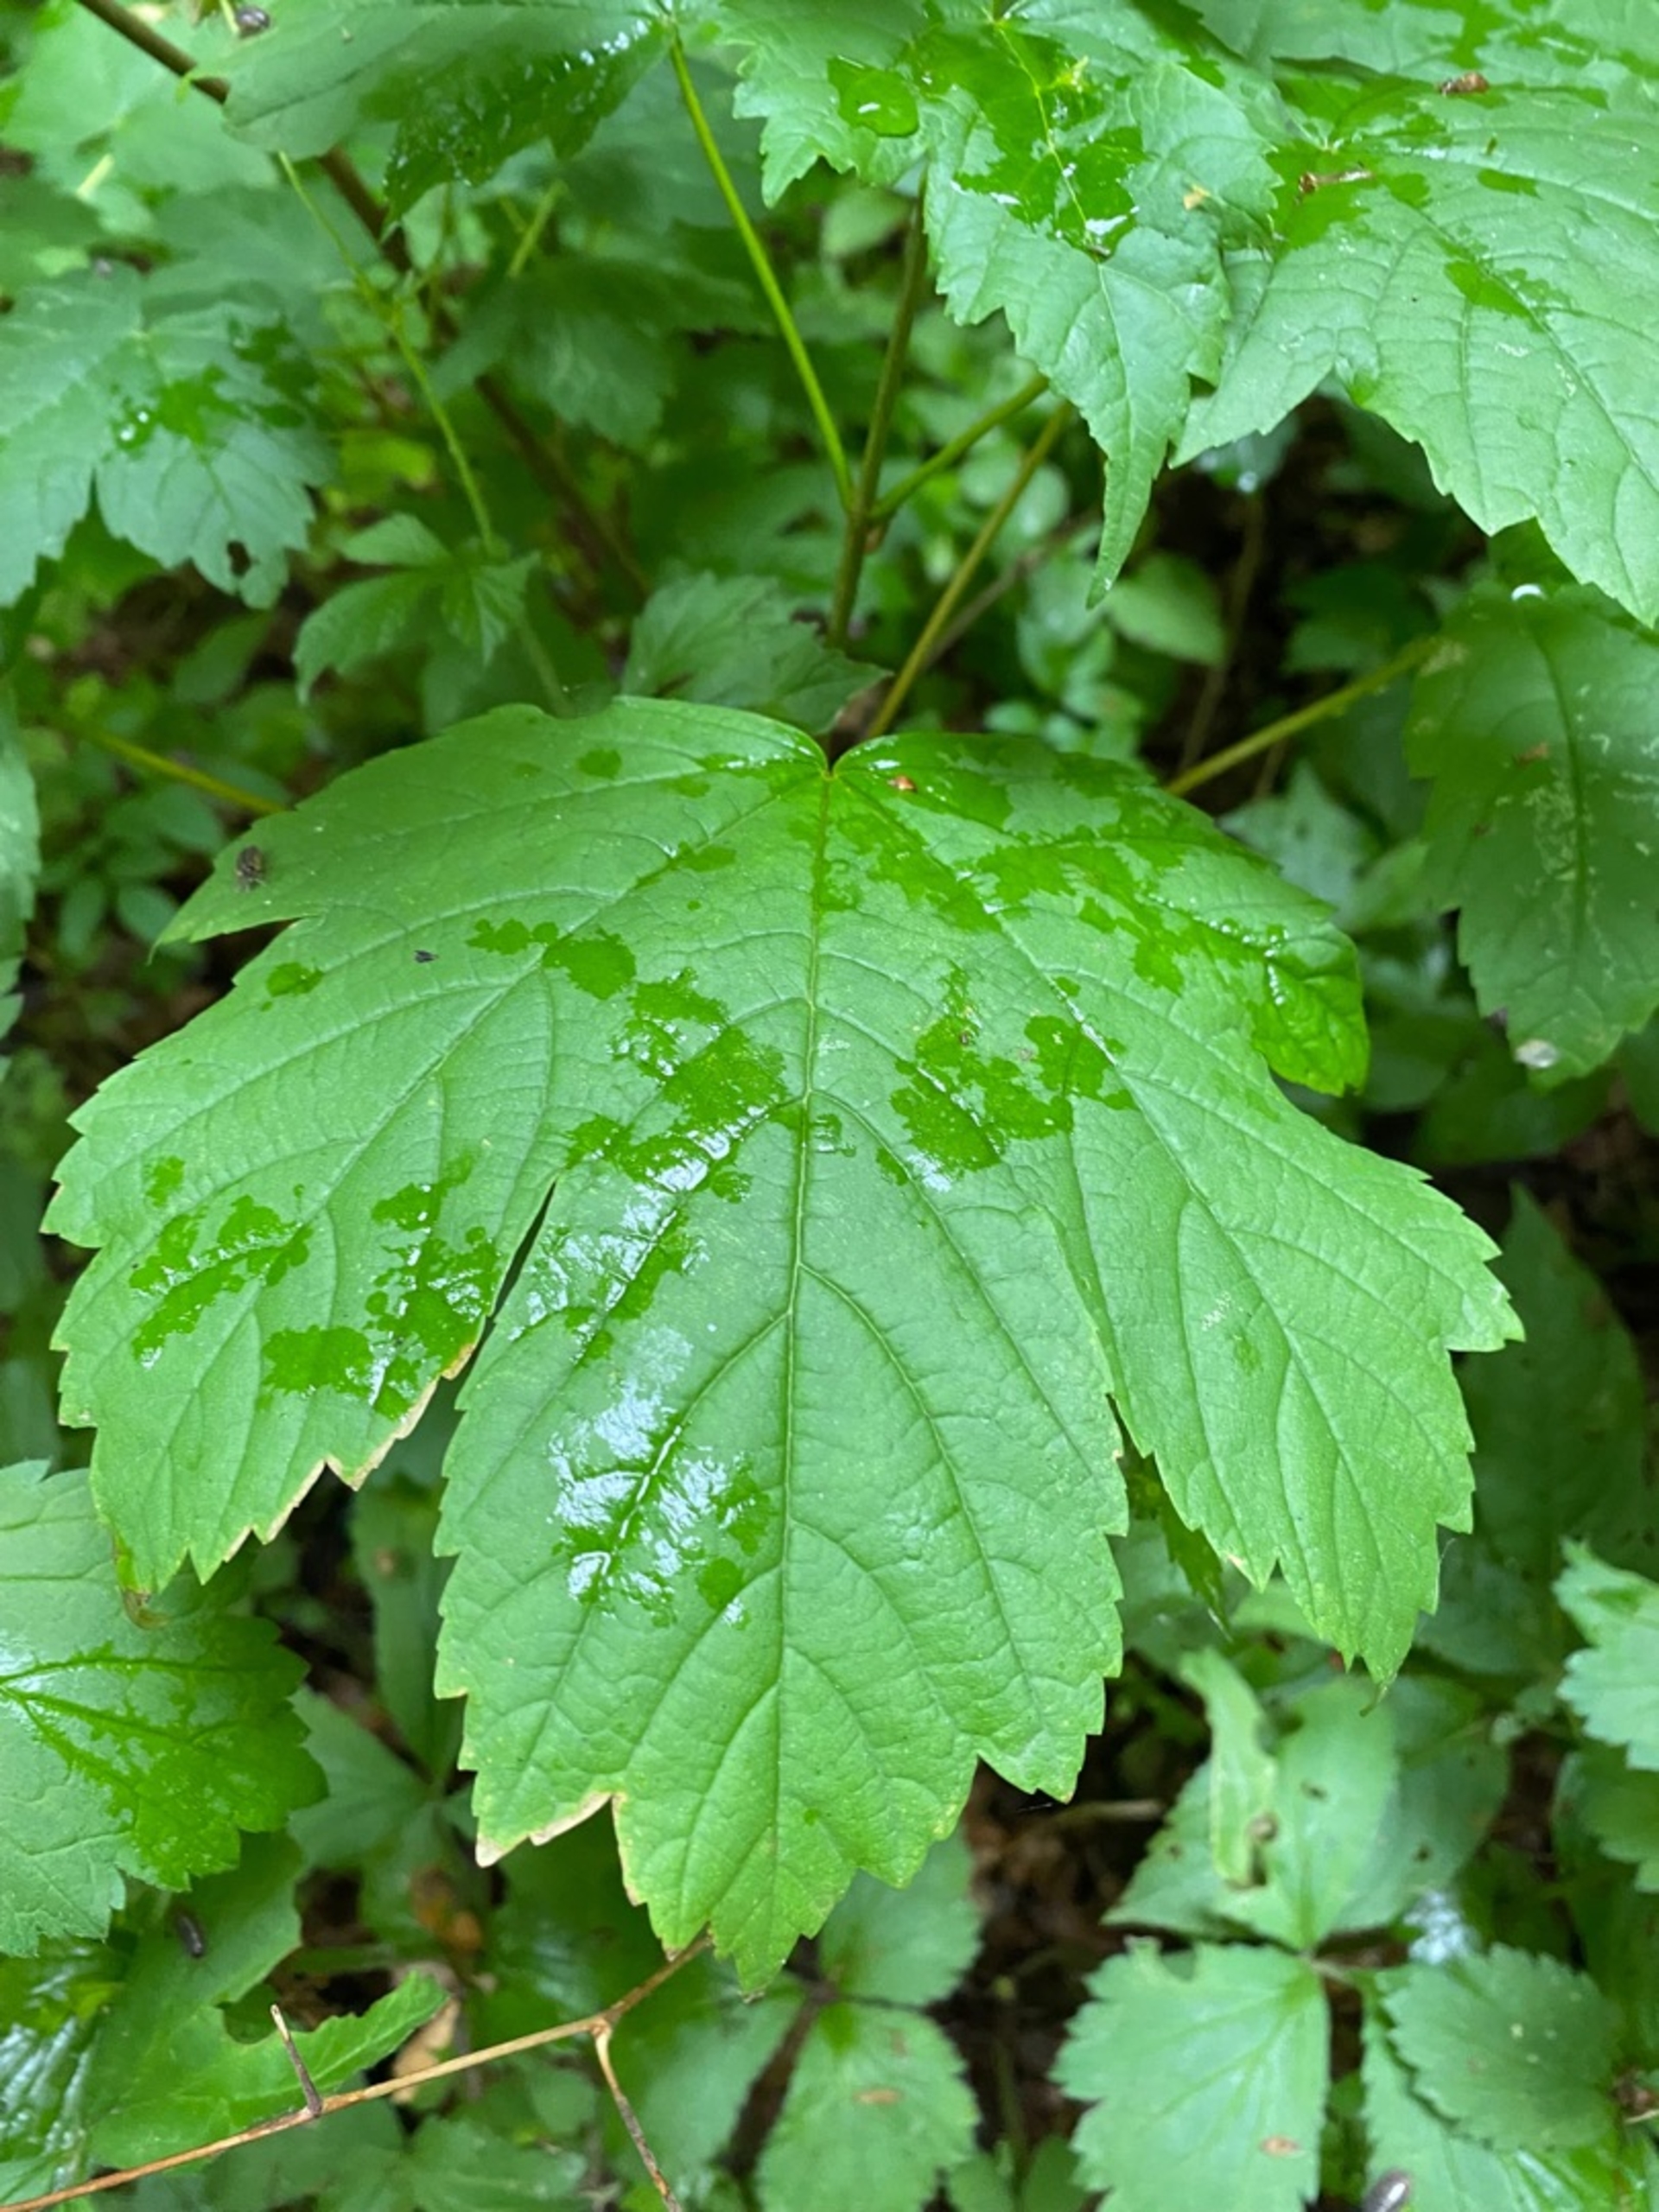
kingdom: Plantae
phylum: Tracheophyta
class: Magnoliopsida
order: Sapindales
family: Sapindaceae
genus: Acer
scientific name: Acer pseudoplatanus
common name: Ahorn
